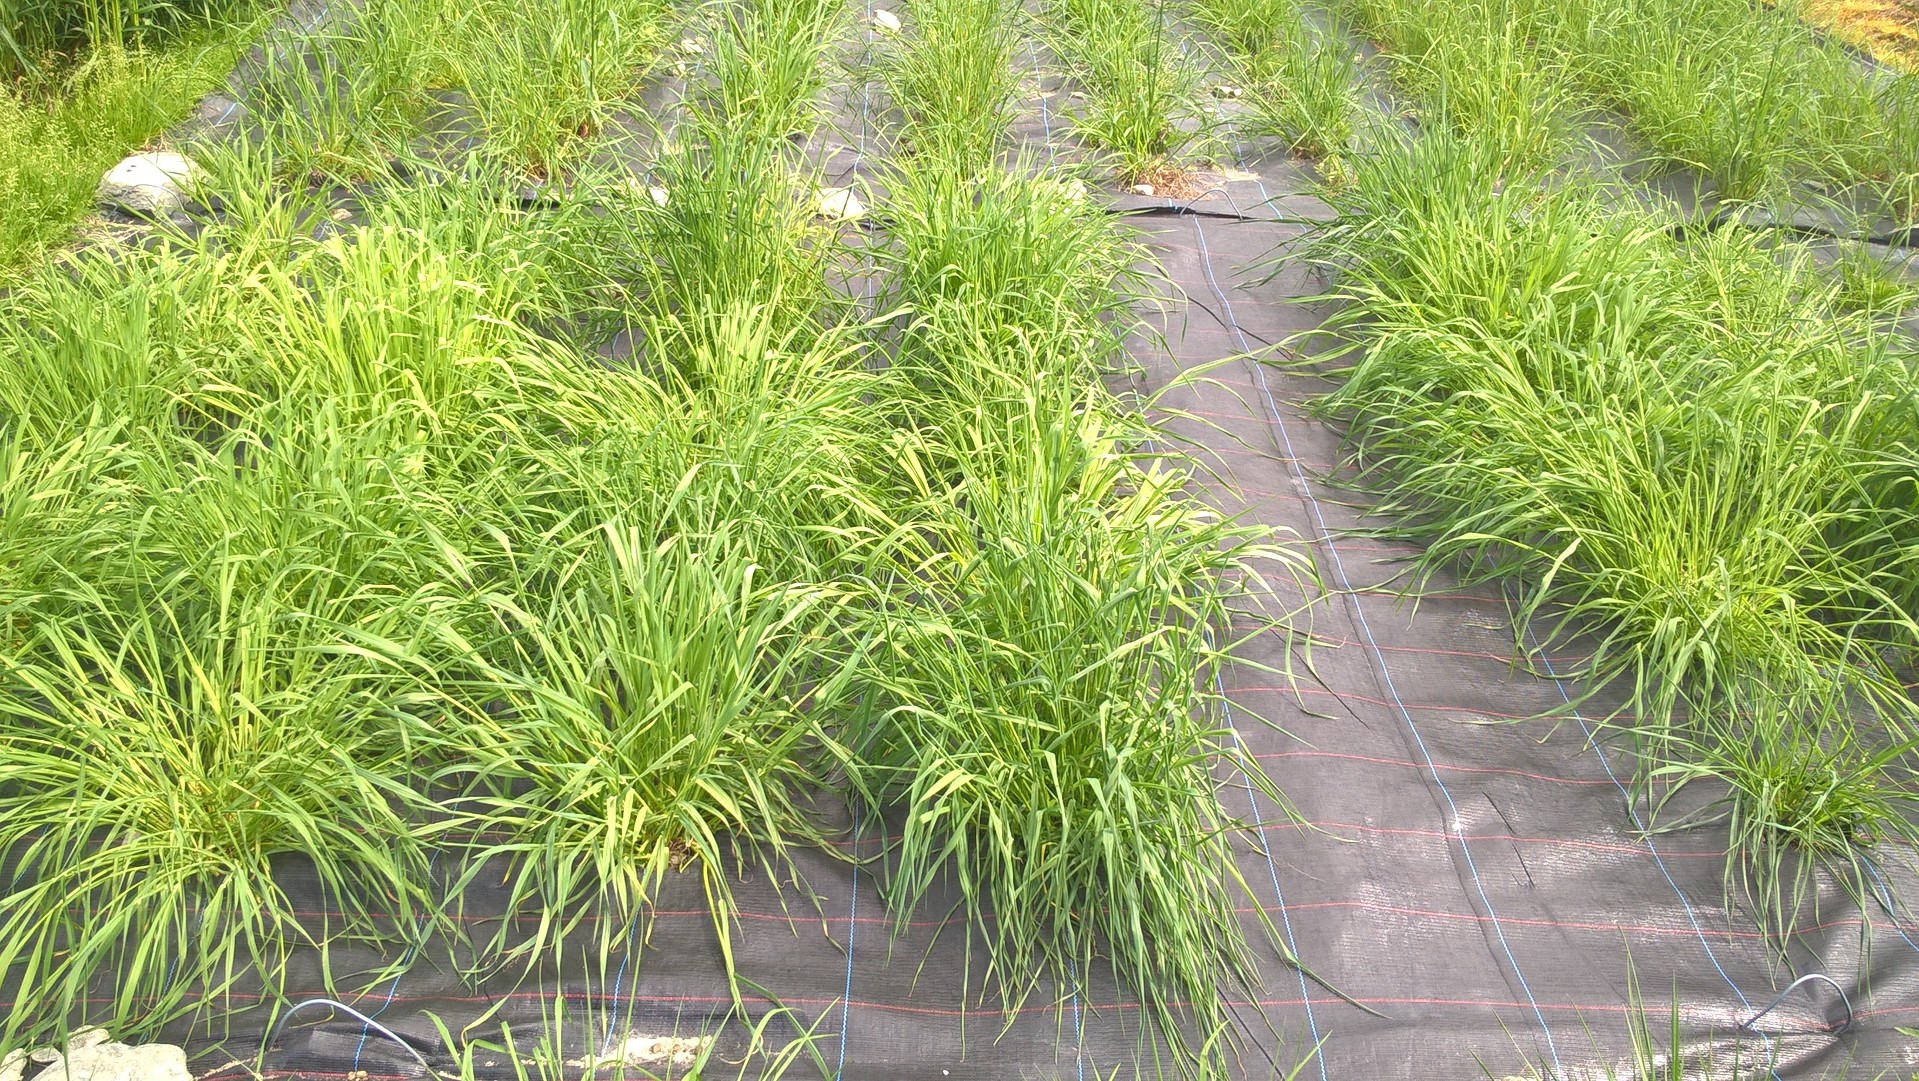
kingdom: Plantae
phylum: Tracheophyta
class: Liliopsida
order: Poales
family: Poaceae
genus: Phleum
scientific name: Phleum pratense
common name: Timothy grass
